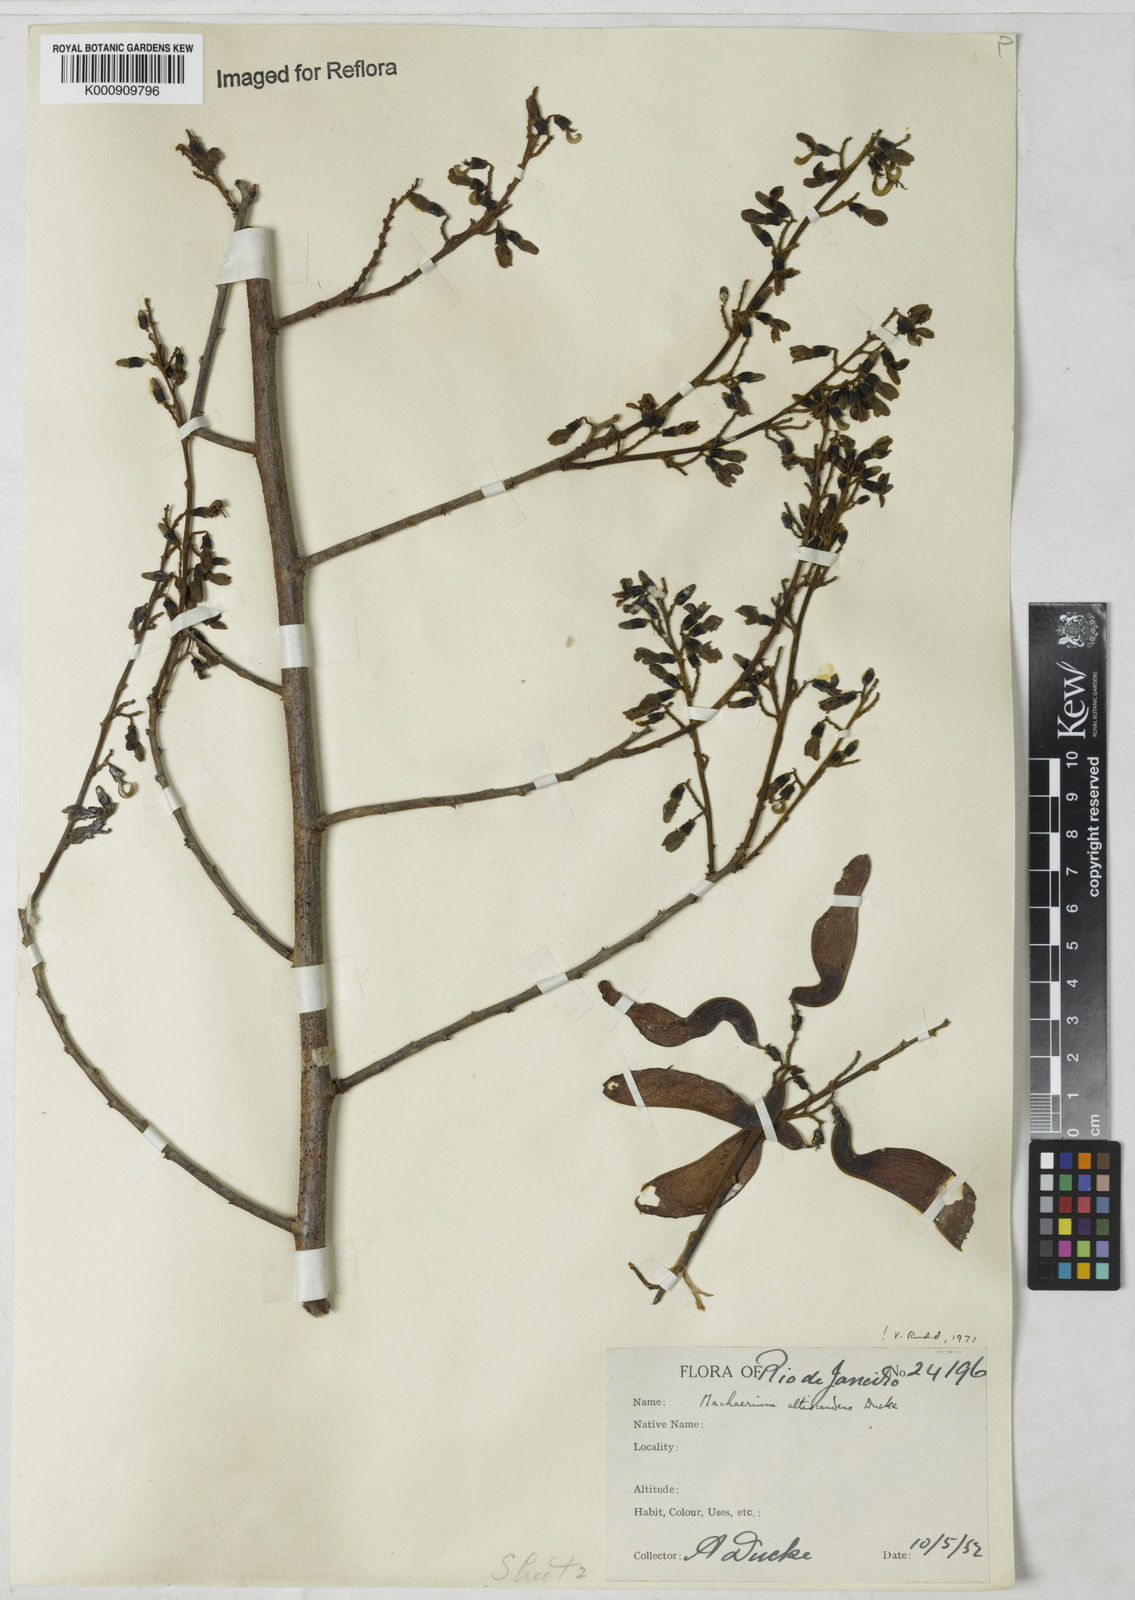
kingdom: Plantae
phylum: Tracheophyta
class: Magnoliopsida
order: Fabales
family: Fabaceae
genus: Machaerium
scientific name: Machaerium isadelphum
